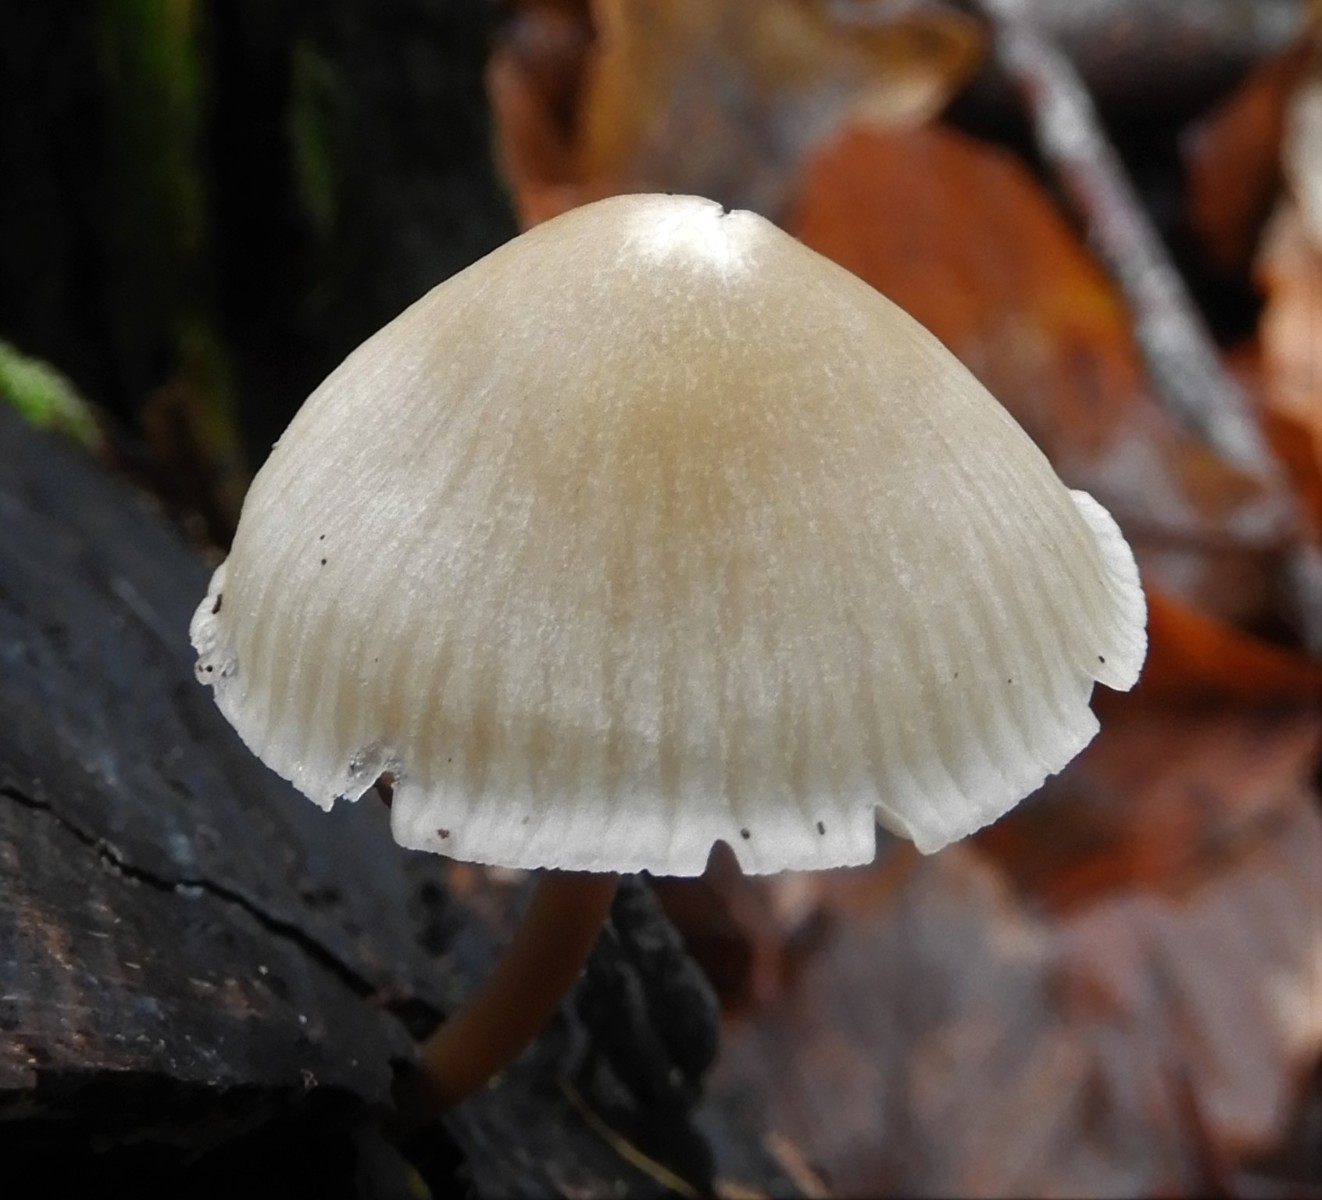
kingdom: Fungi
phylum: Basidiomycota
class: Agaricomycetes
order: Agaricales
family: Mycenaceae
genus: Mycena
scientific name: Mycena galericulata
